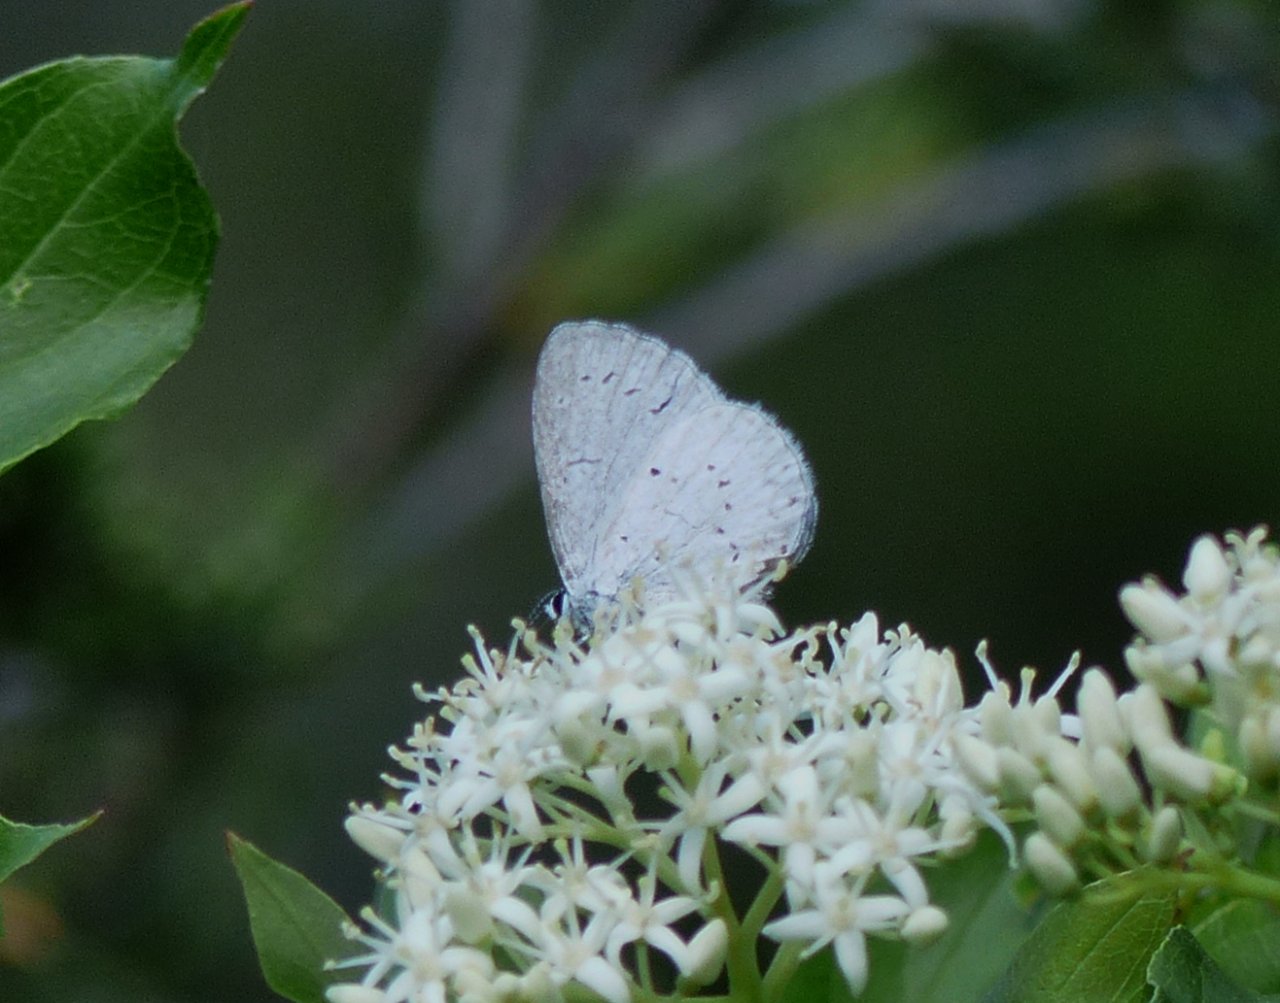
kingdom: Animalia
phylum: Arthropoda
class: Insecta
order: Lepidoptera
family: Lycaenidae
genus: Cyaniris
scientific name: Cyaniris neglecta
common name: Summer Azure
